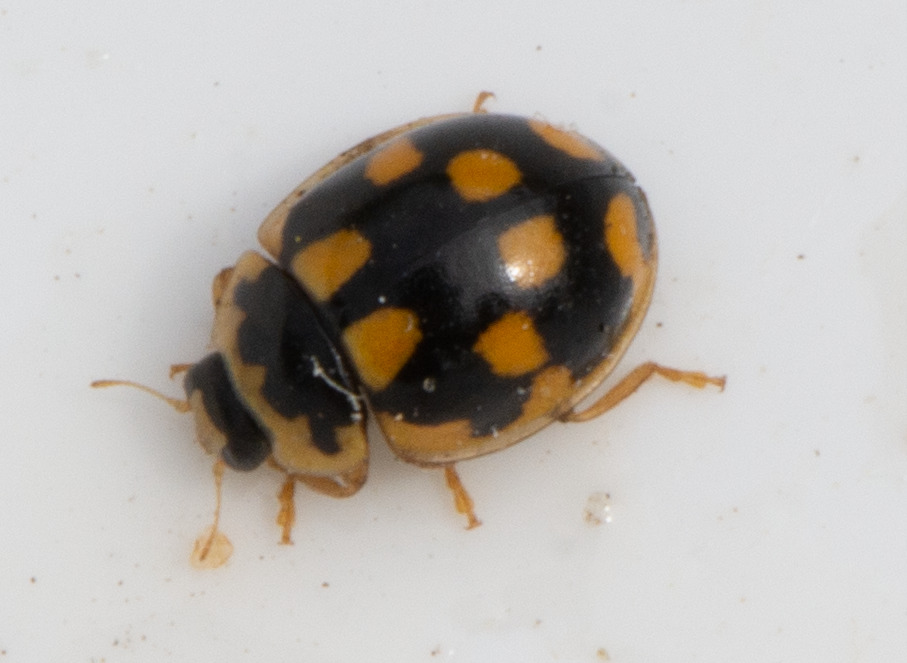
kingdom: Animalia
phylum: Arthropoda
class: Insecta
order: Coleoptera
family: Coccinellidae
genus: Propylaea
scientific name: Propylaea quatuordecimpunctata
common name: Skakbræt
